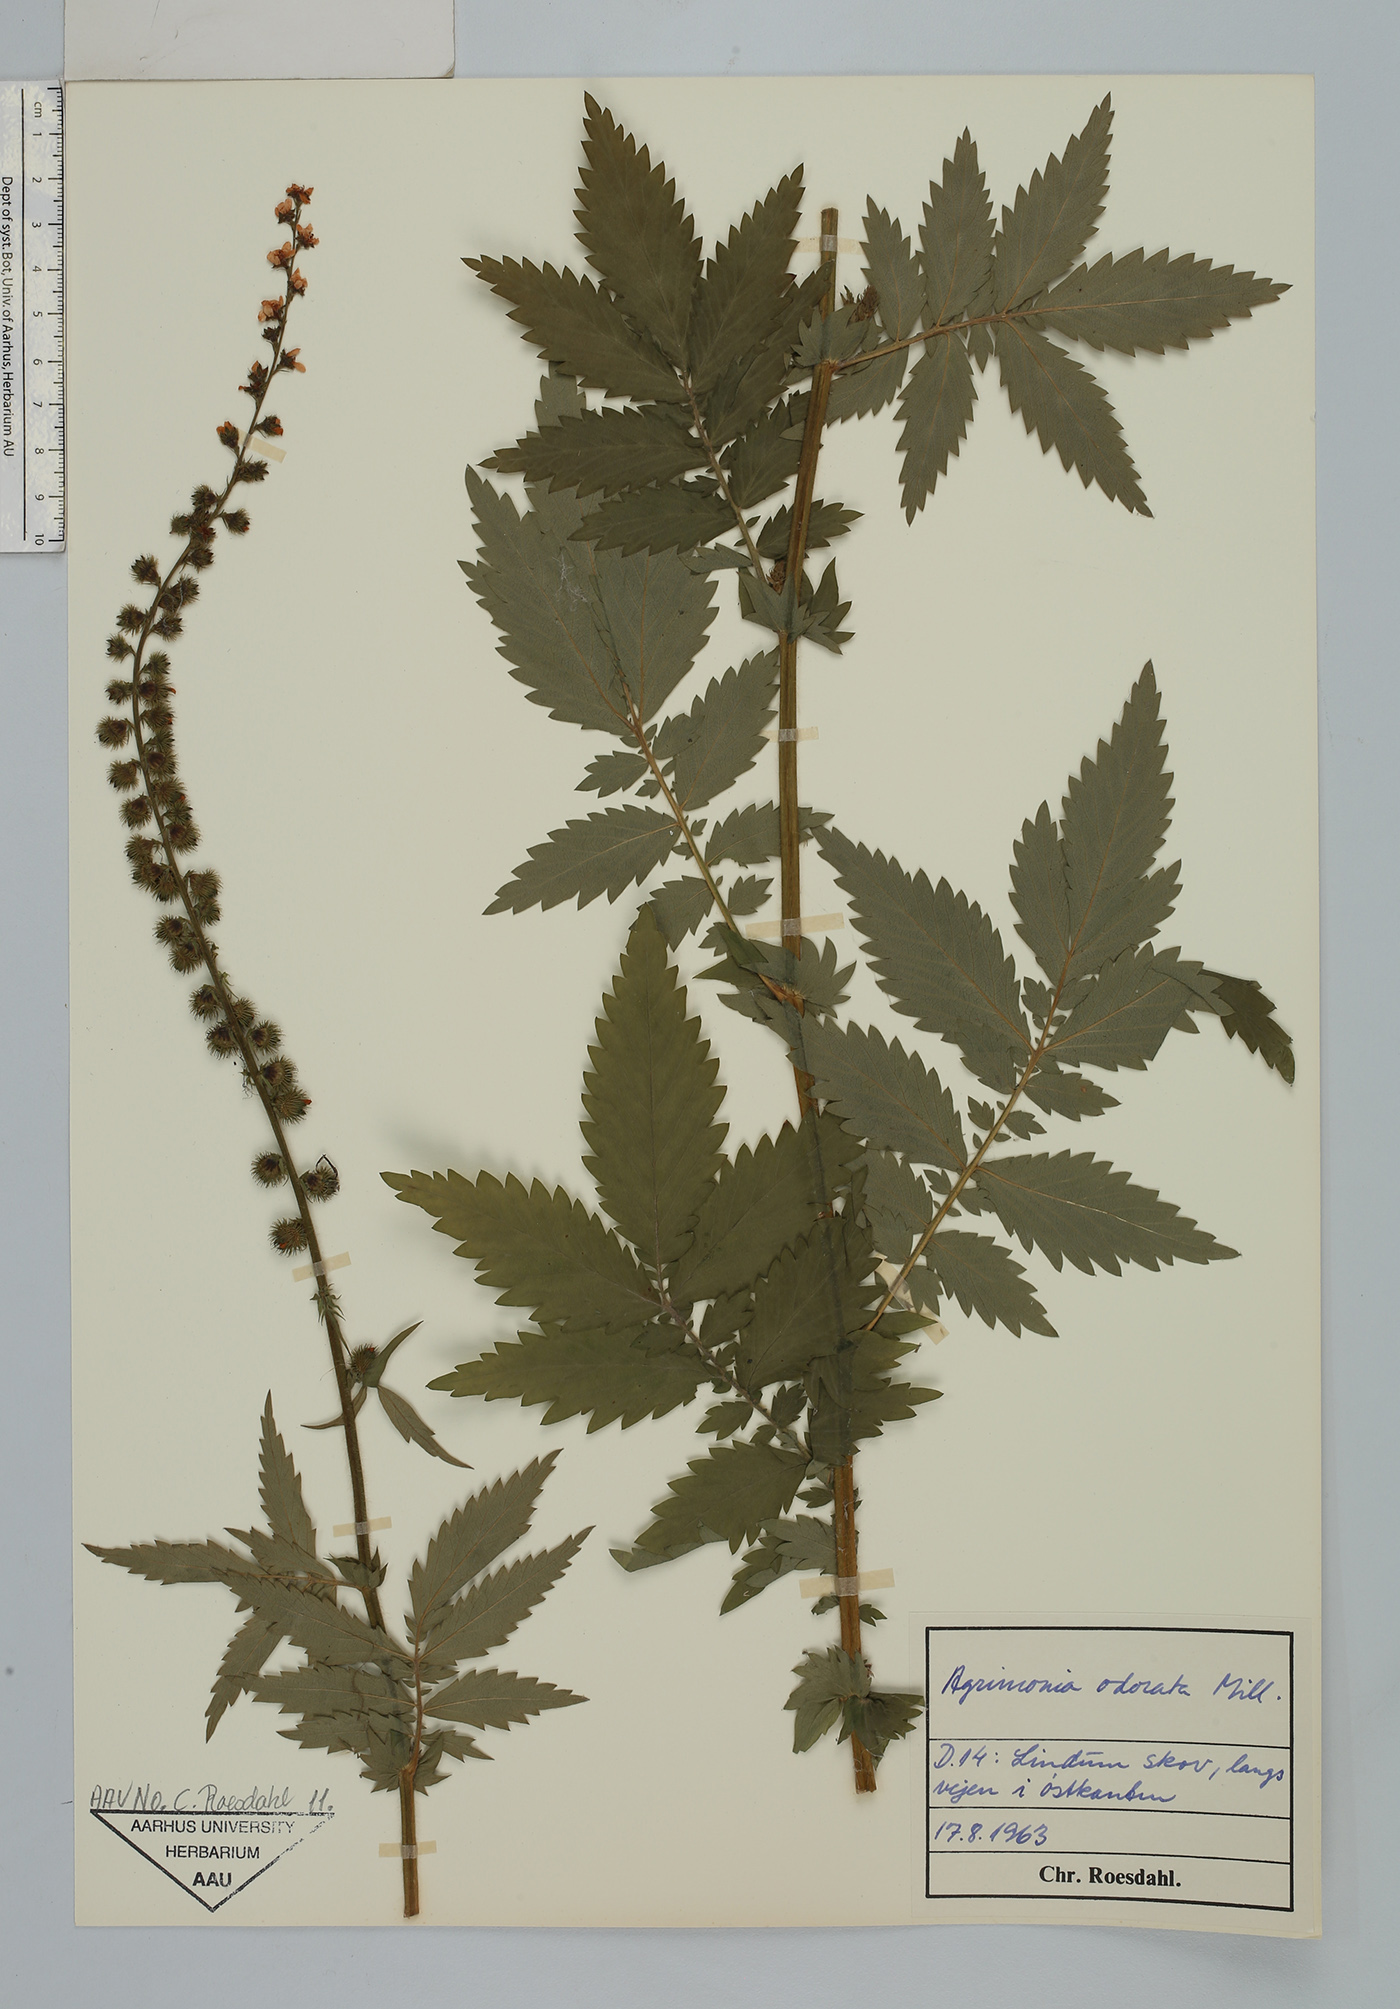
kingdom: Plantae
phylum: Tracheophyta
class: Magnoliopsida
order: Rosales
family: Rosaceae
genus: Agrimonia
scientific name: Agrimonia repens
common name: Creeping agrimony
